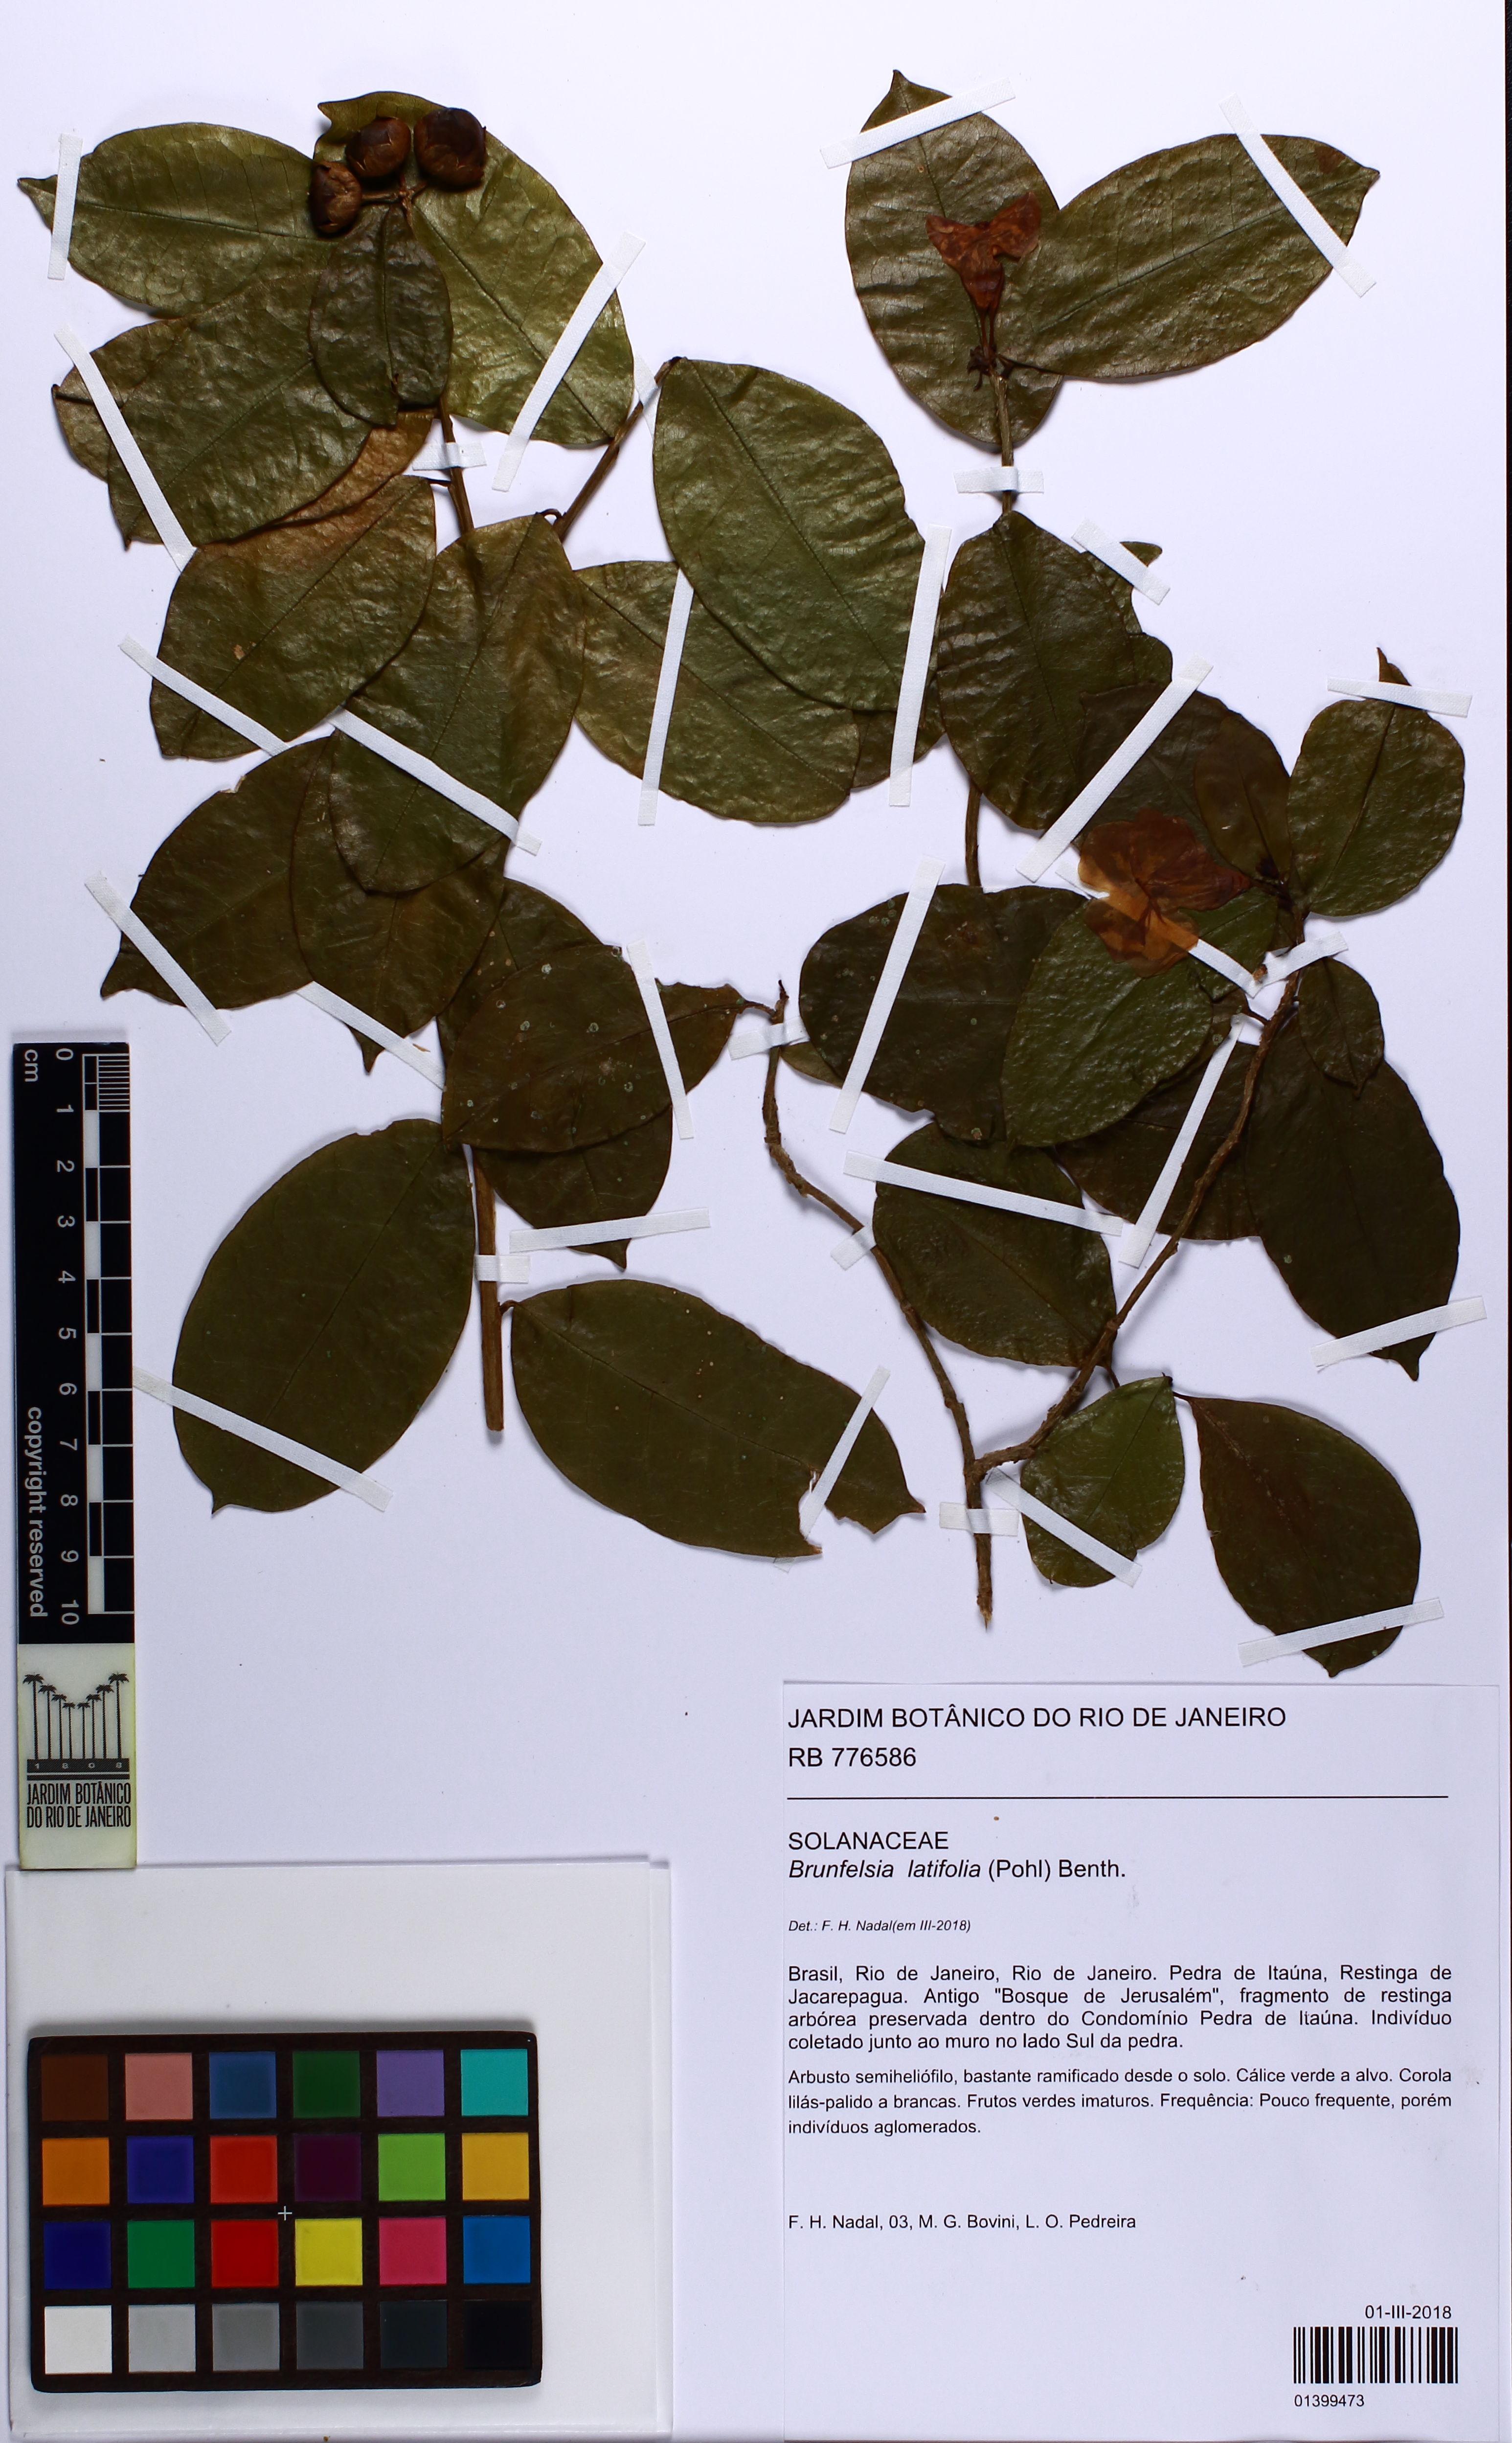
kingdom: Plantae
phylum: Tracheophyta
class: Magnoliopsida
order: Solanales
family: Solanaceae
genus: Brunfelsia
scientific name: Brunfelsia latifolia
